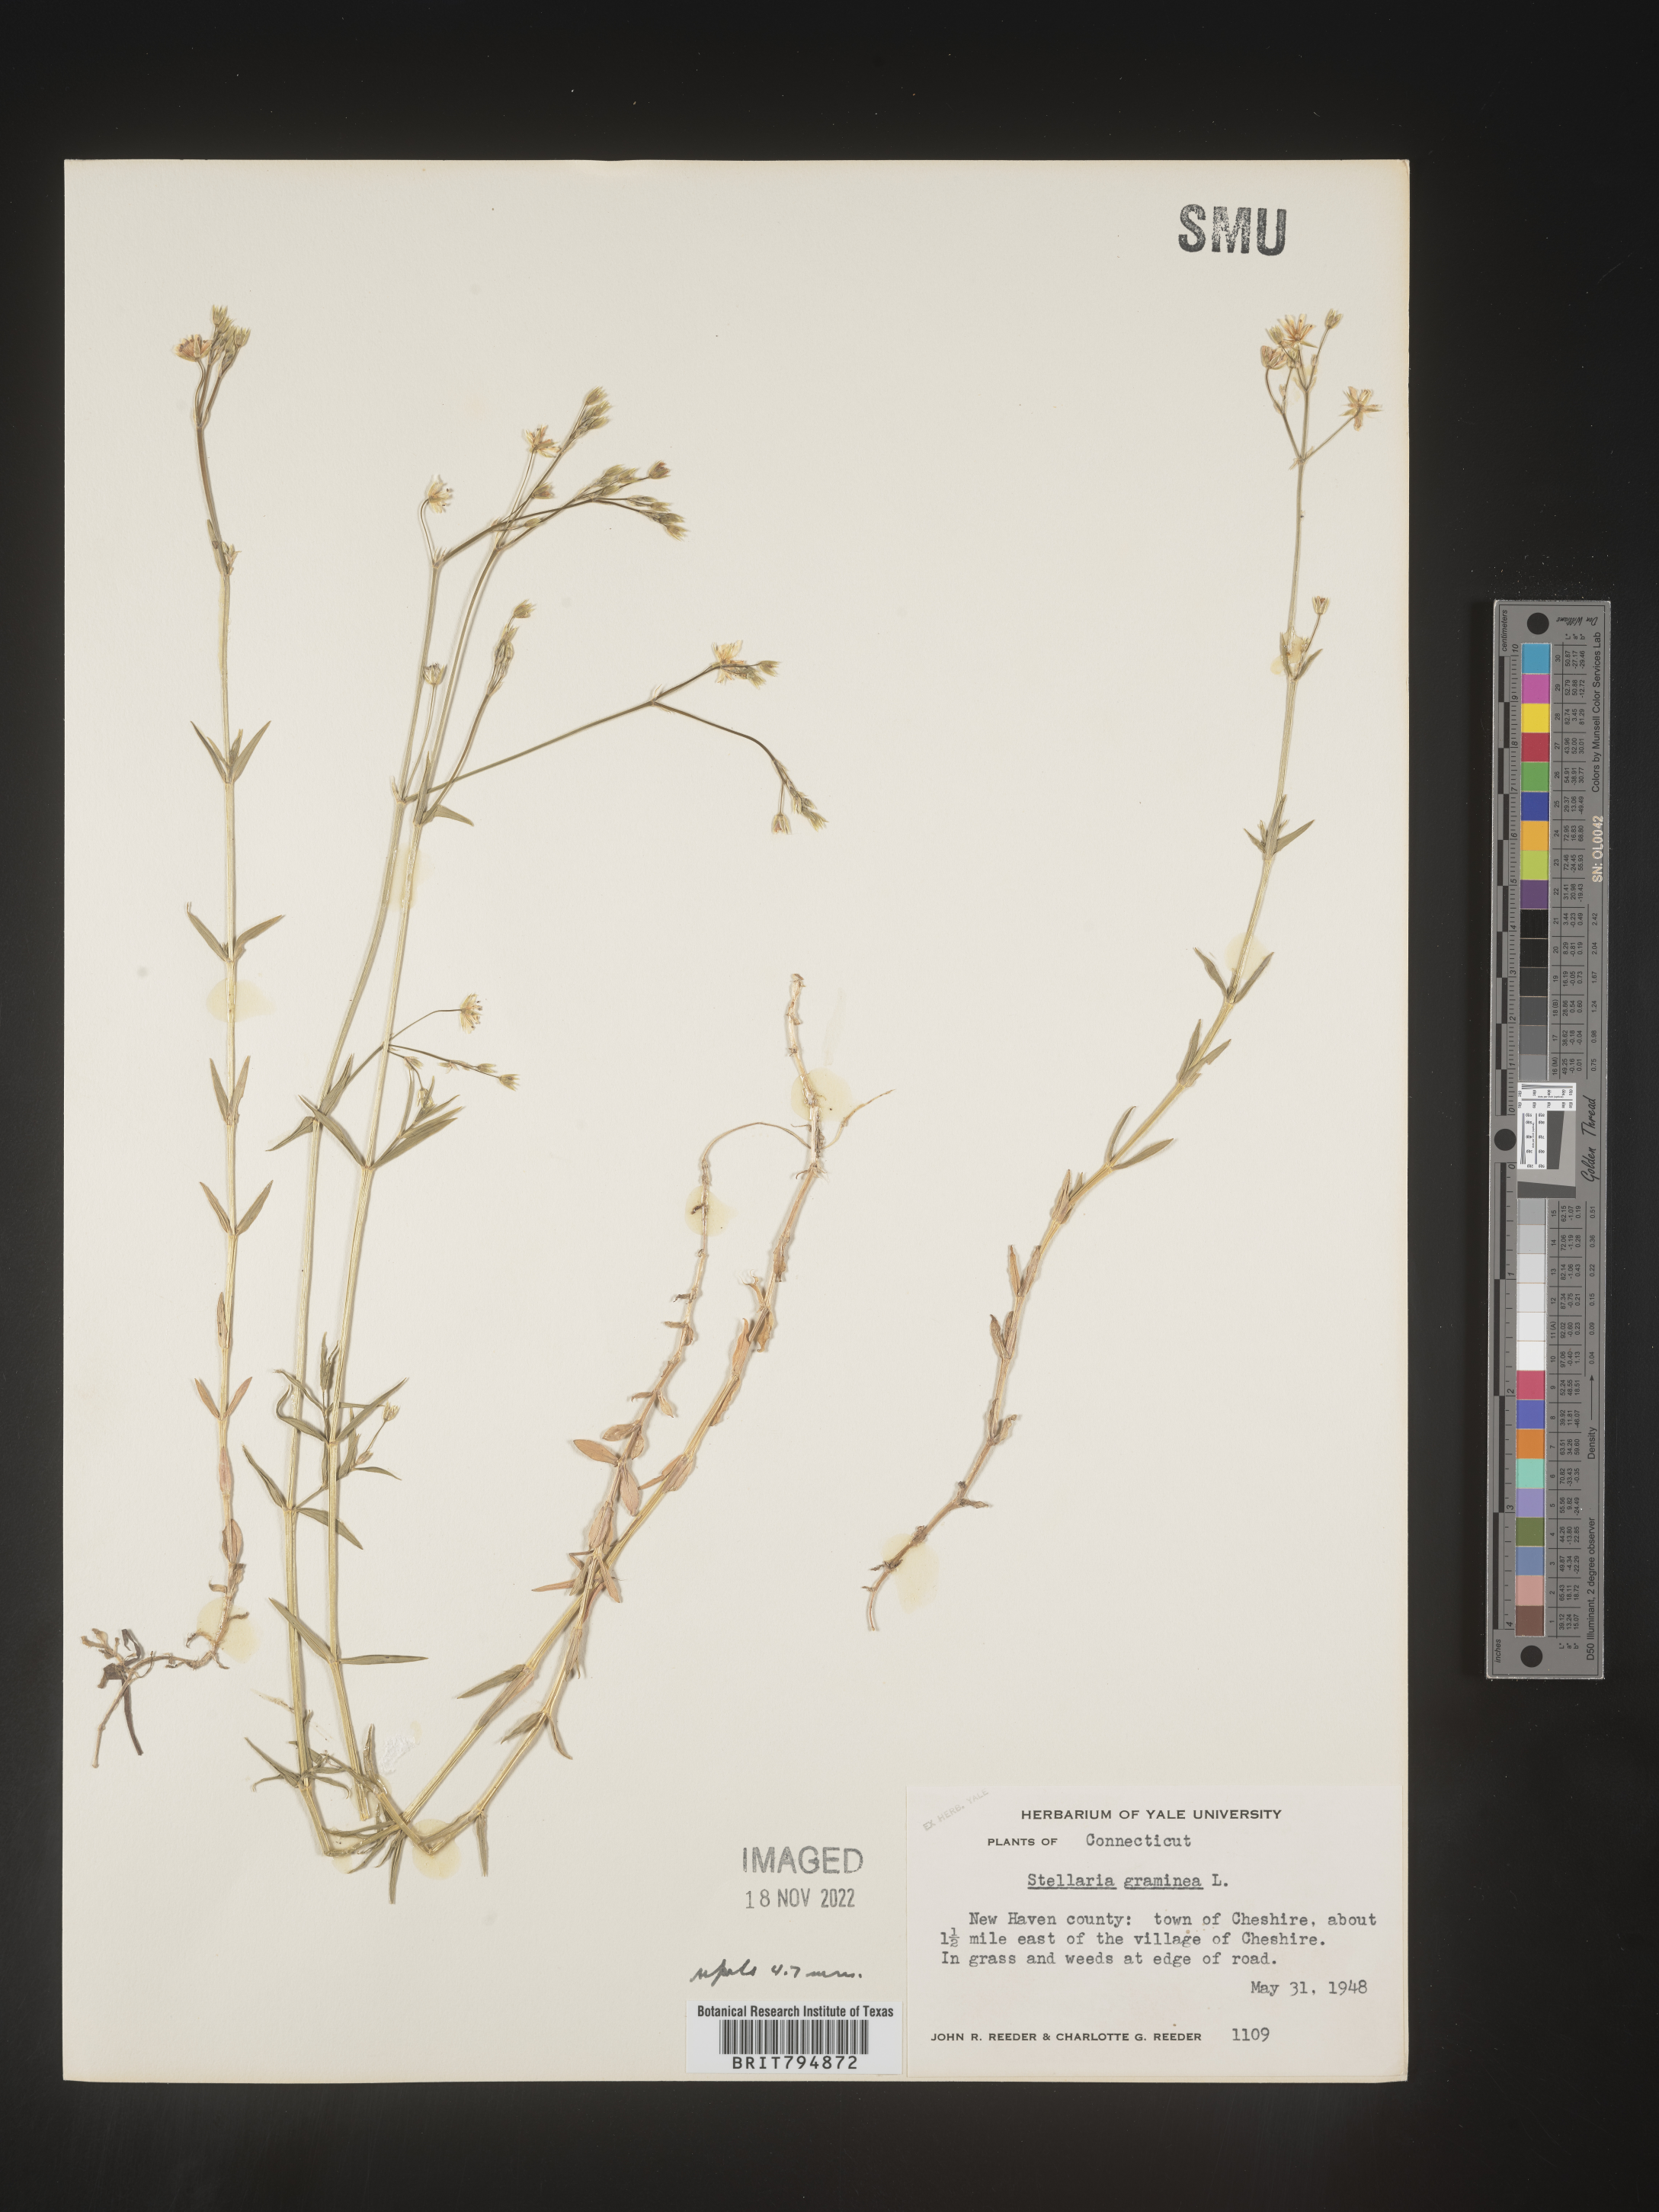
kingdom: Plantae
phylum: Tracheophyta
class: Magnoliopsida
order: Caryophyllales
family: Caryophyllaceae
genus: Stellaria
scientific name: Stellaria graminea
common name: Grass-like starwort
